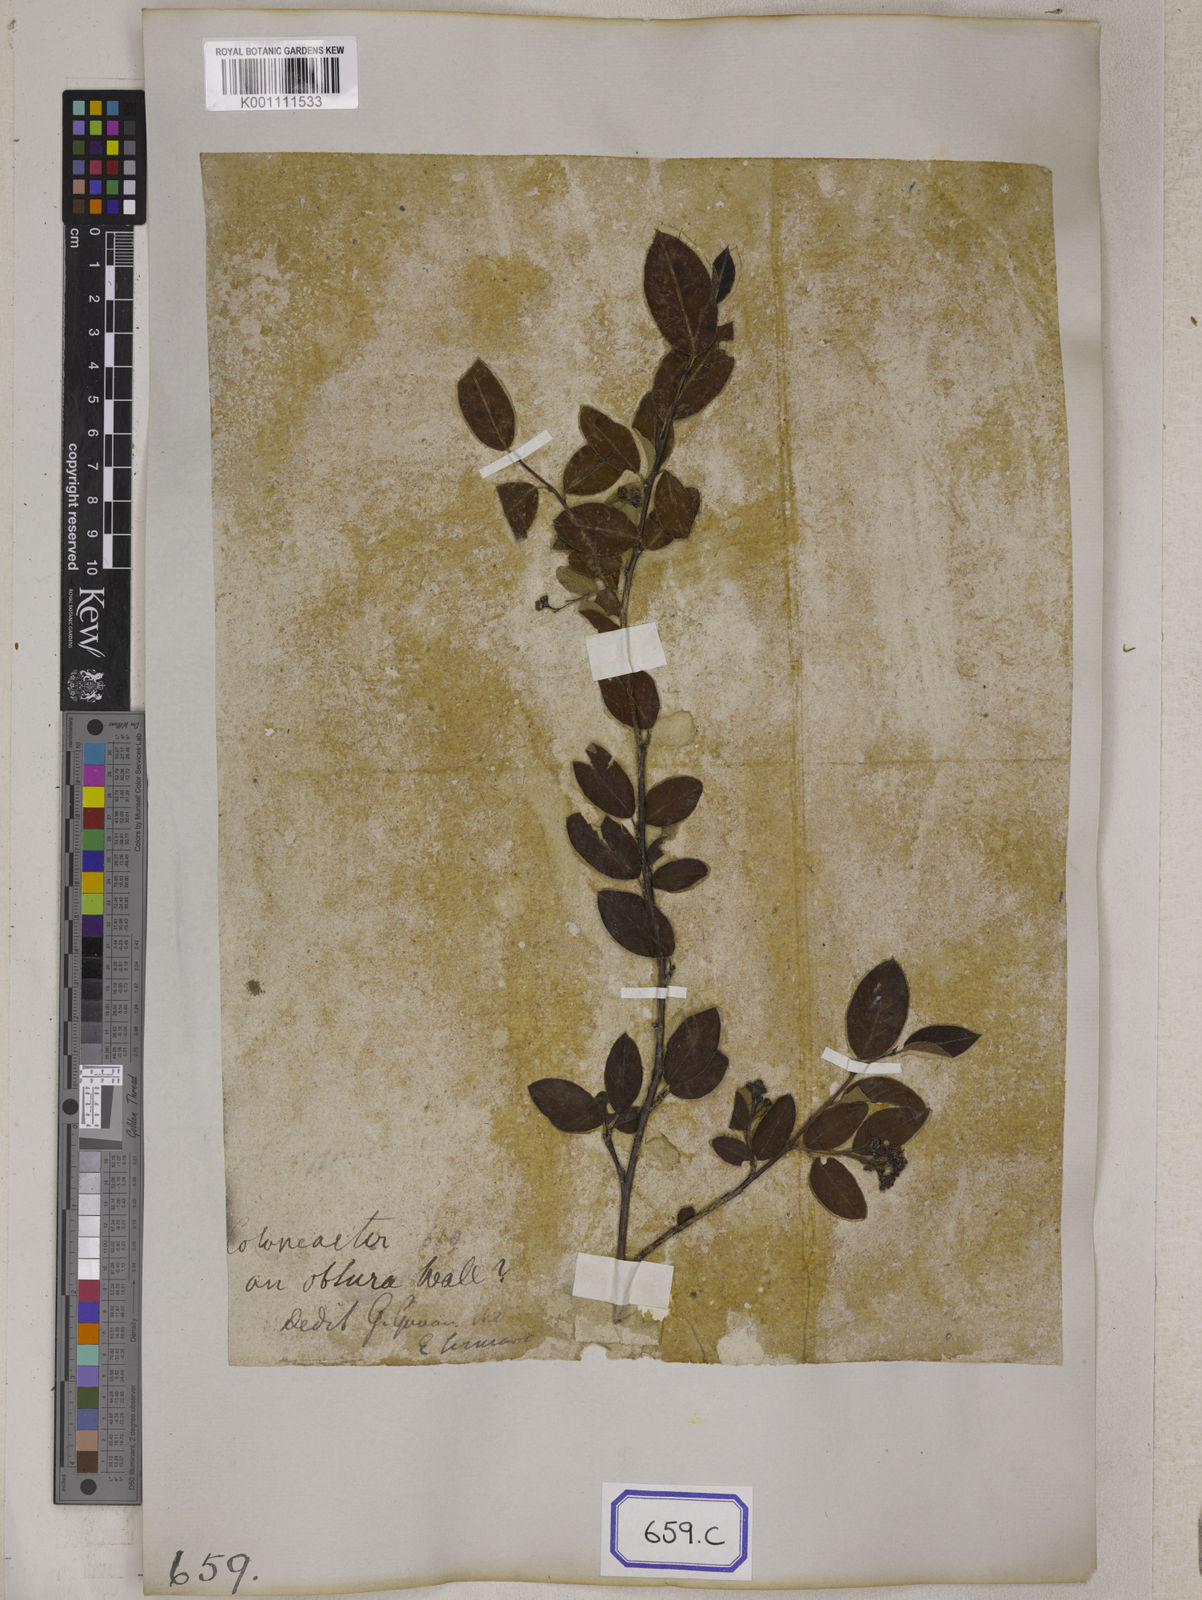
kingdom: Plantae
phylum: Tracheophyta
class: Magnoliopsida
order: Rosales
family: Rosaceae
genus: Cotoneaster
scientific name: Cotoneaster
